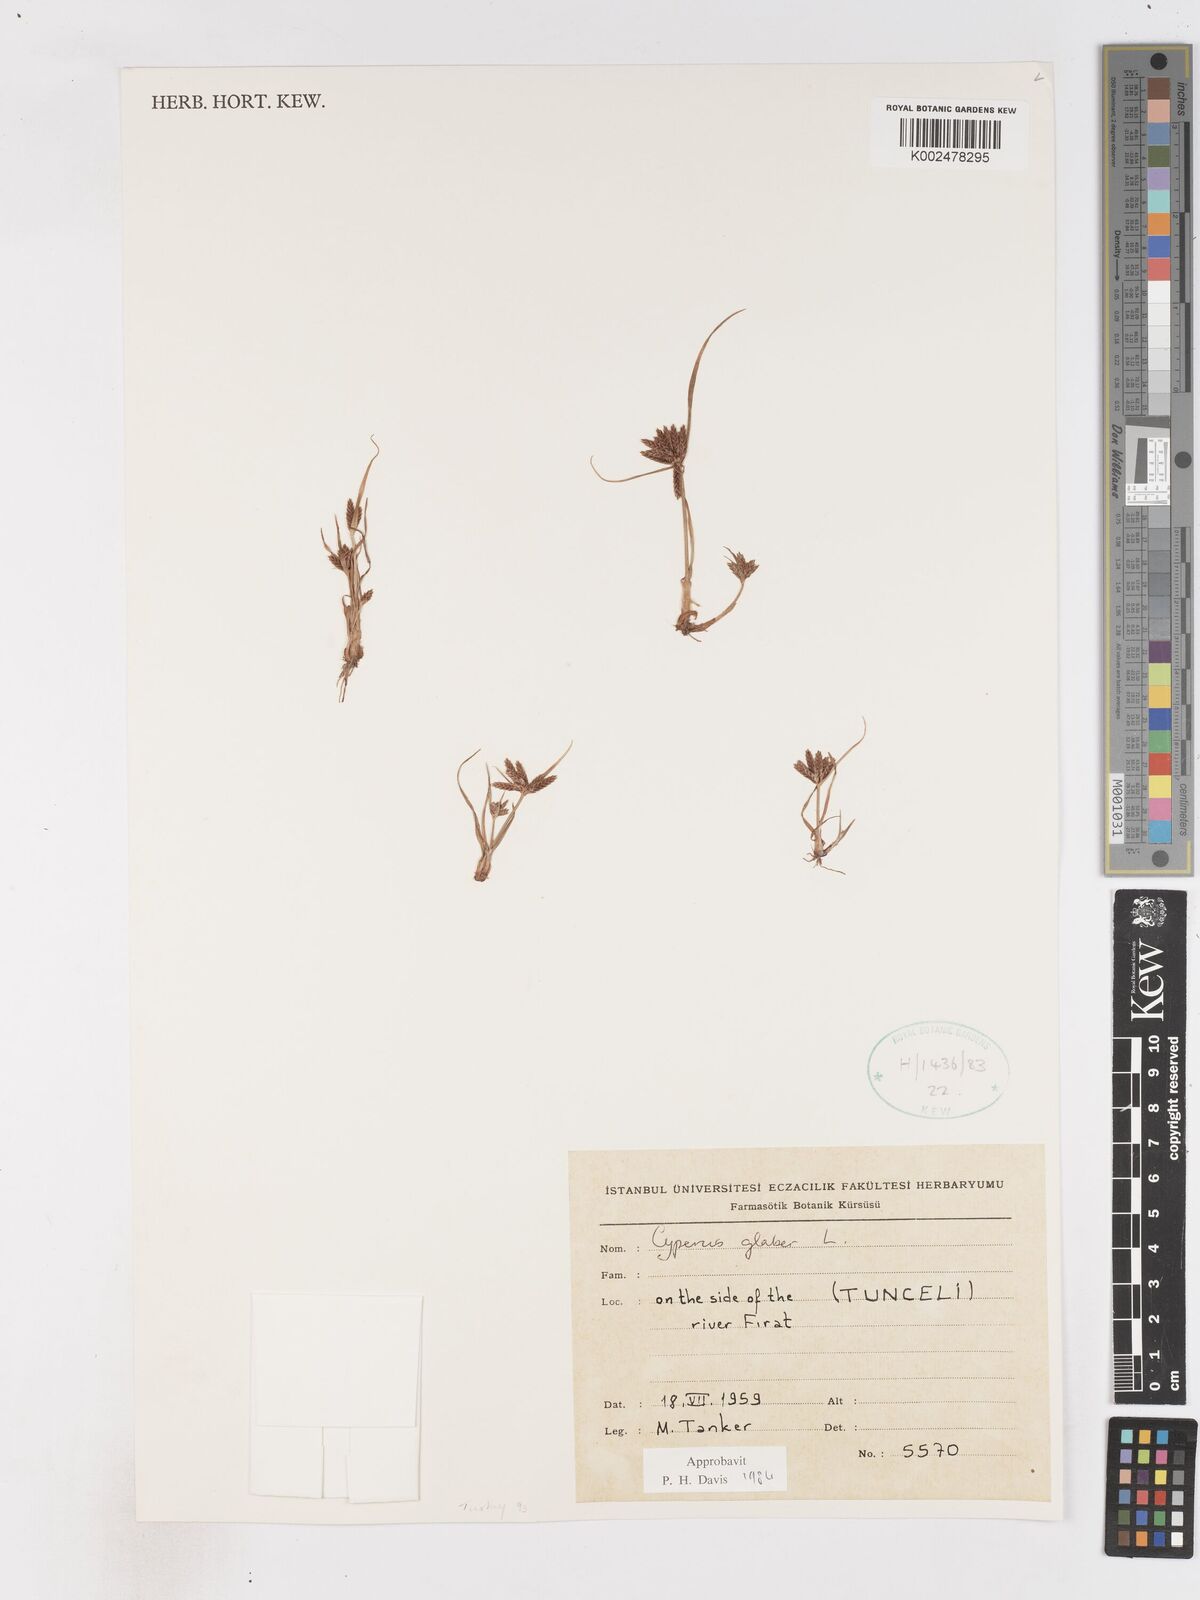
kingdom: Plantae
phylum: Tracheophyta
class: Liliopsida
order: Poales
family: Cyperaceae
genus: Cyperus
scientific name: Cyperus glaber
